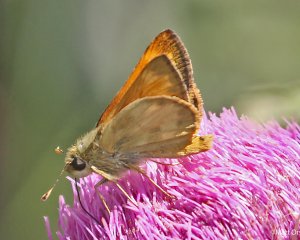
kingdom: Animalia
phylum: Arthropoda
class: Insecta
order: Lepidoptera
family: Hesperiidae
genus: Lon
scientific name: Lon taxiles
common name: Taxiles Skipper
